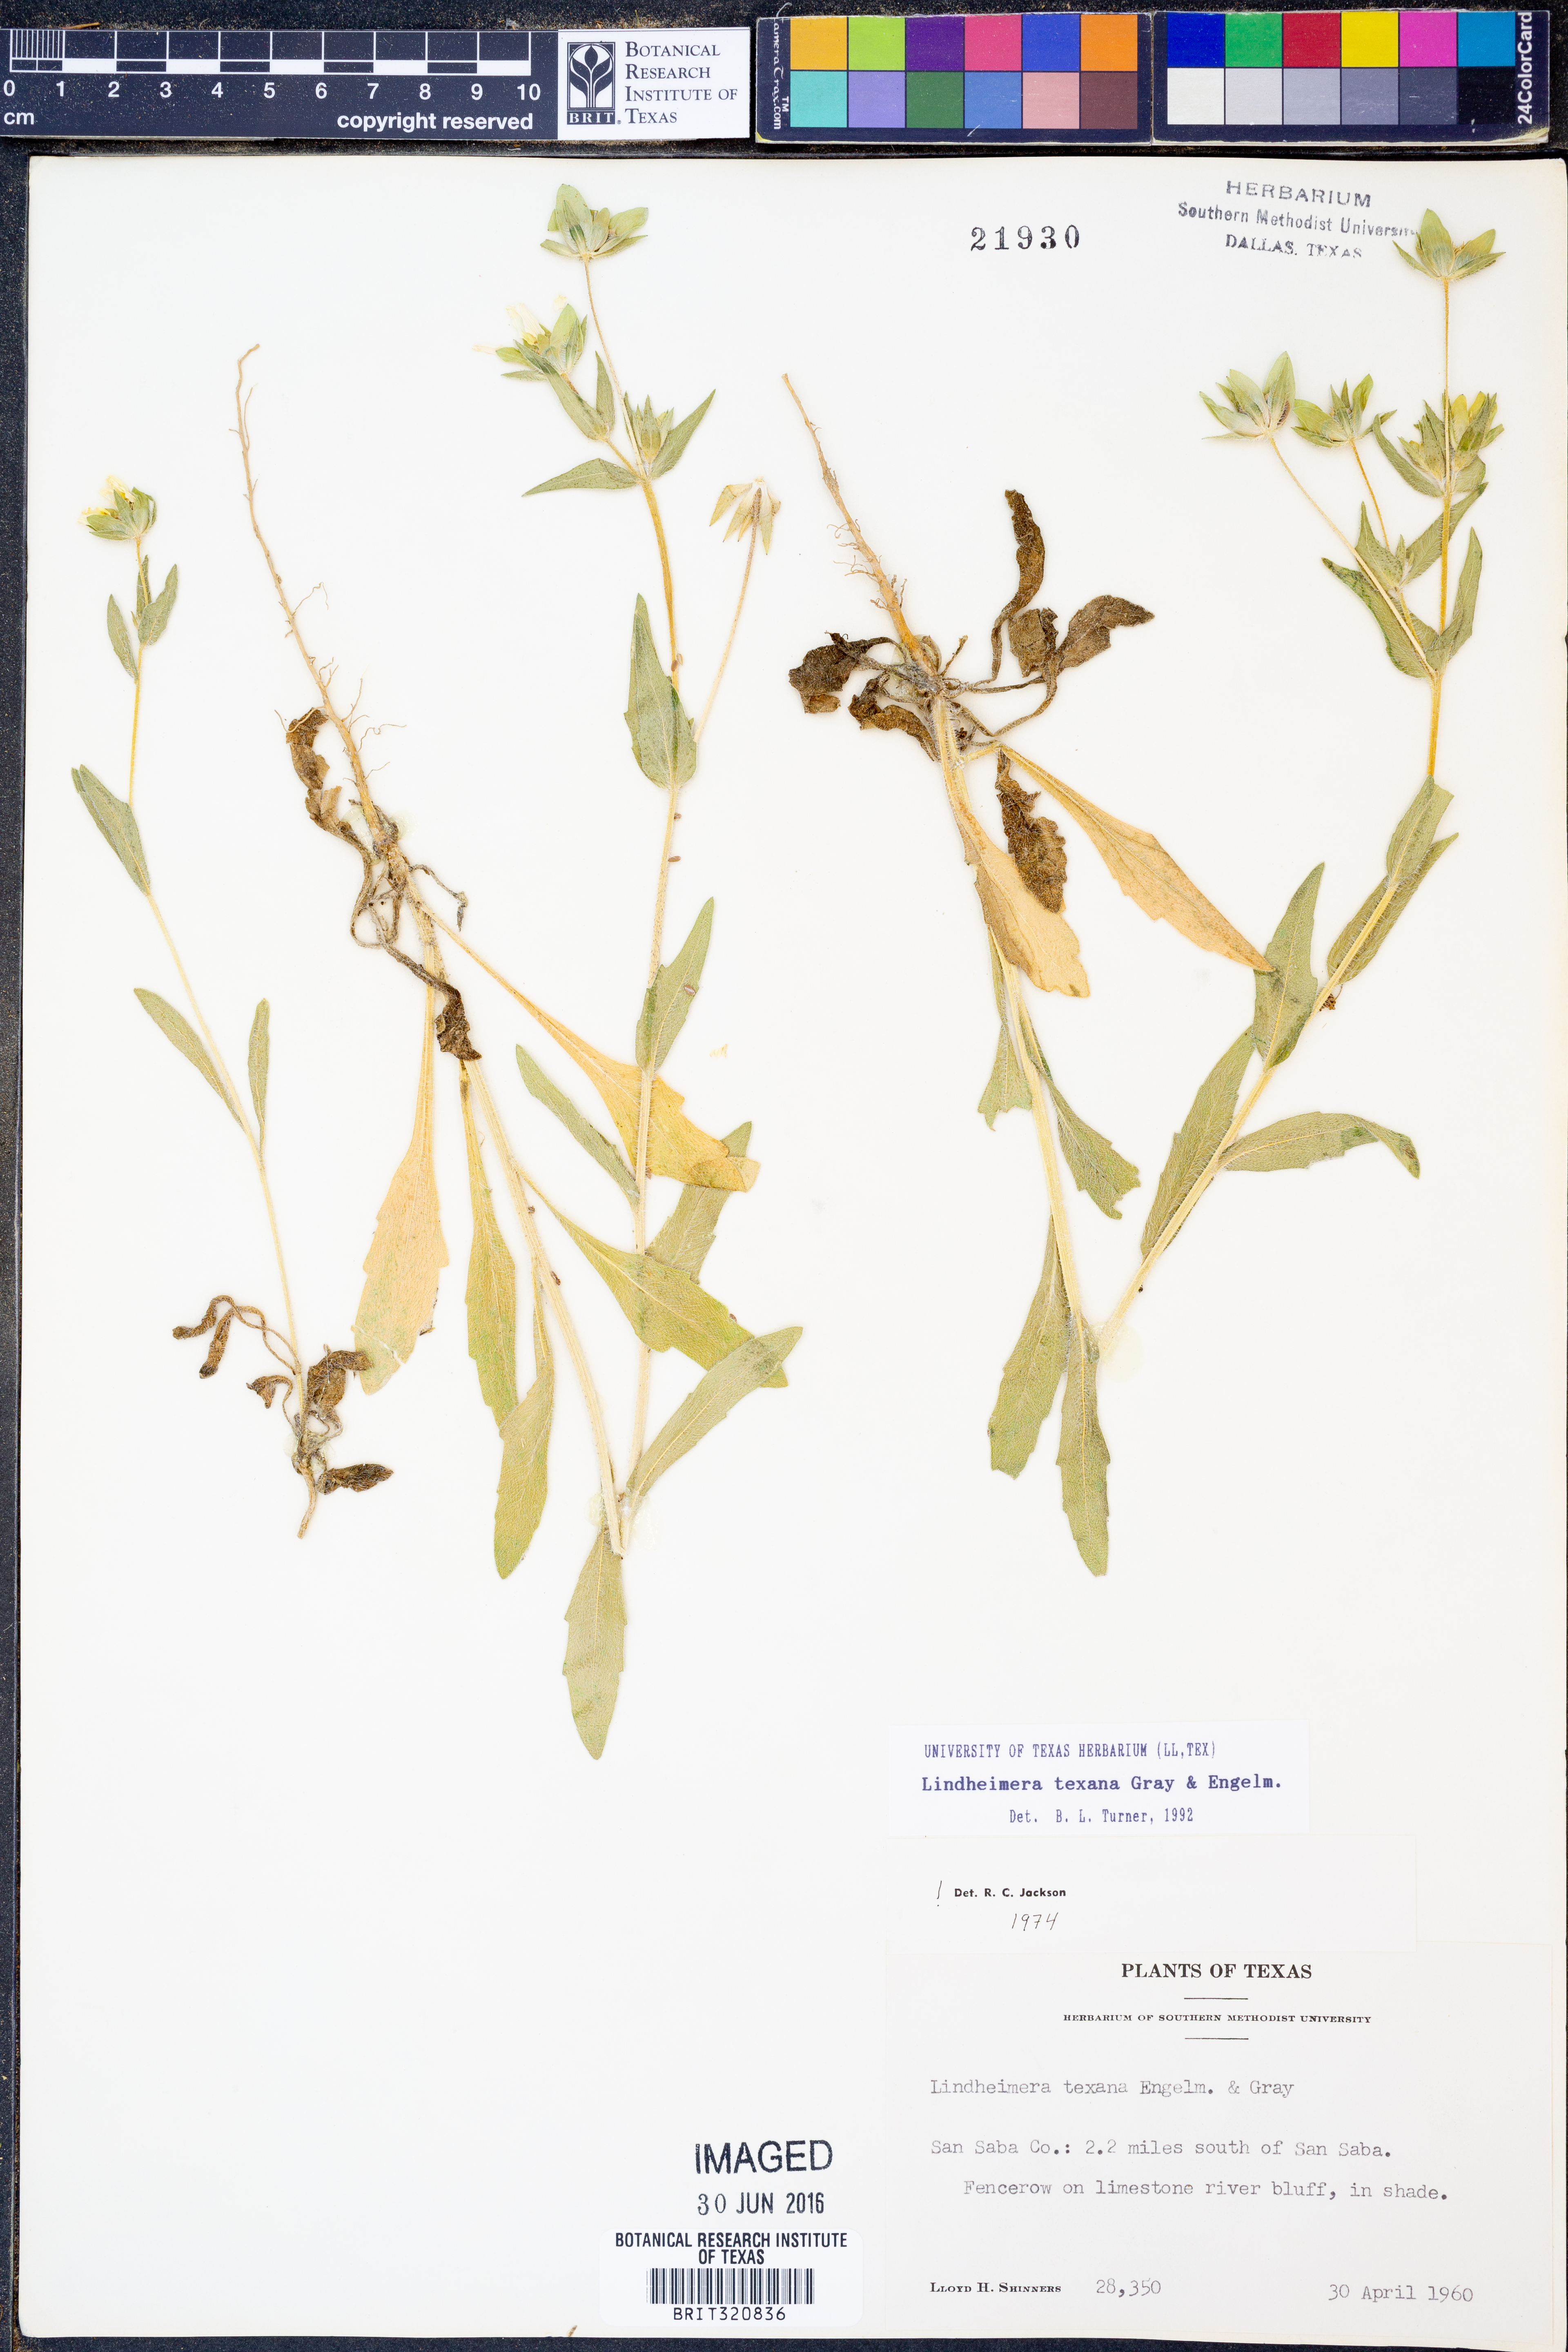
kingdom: Plantae
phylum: Tracheophyta
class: Magnoliopsida
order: Asterales
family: Asteraceae
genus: Lindheimera
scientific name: Lindheimera texana
